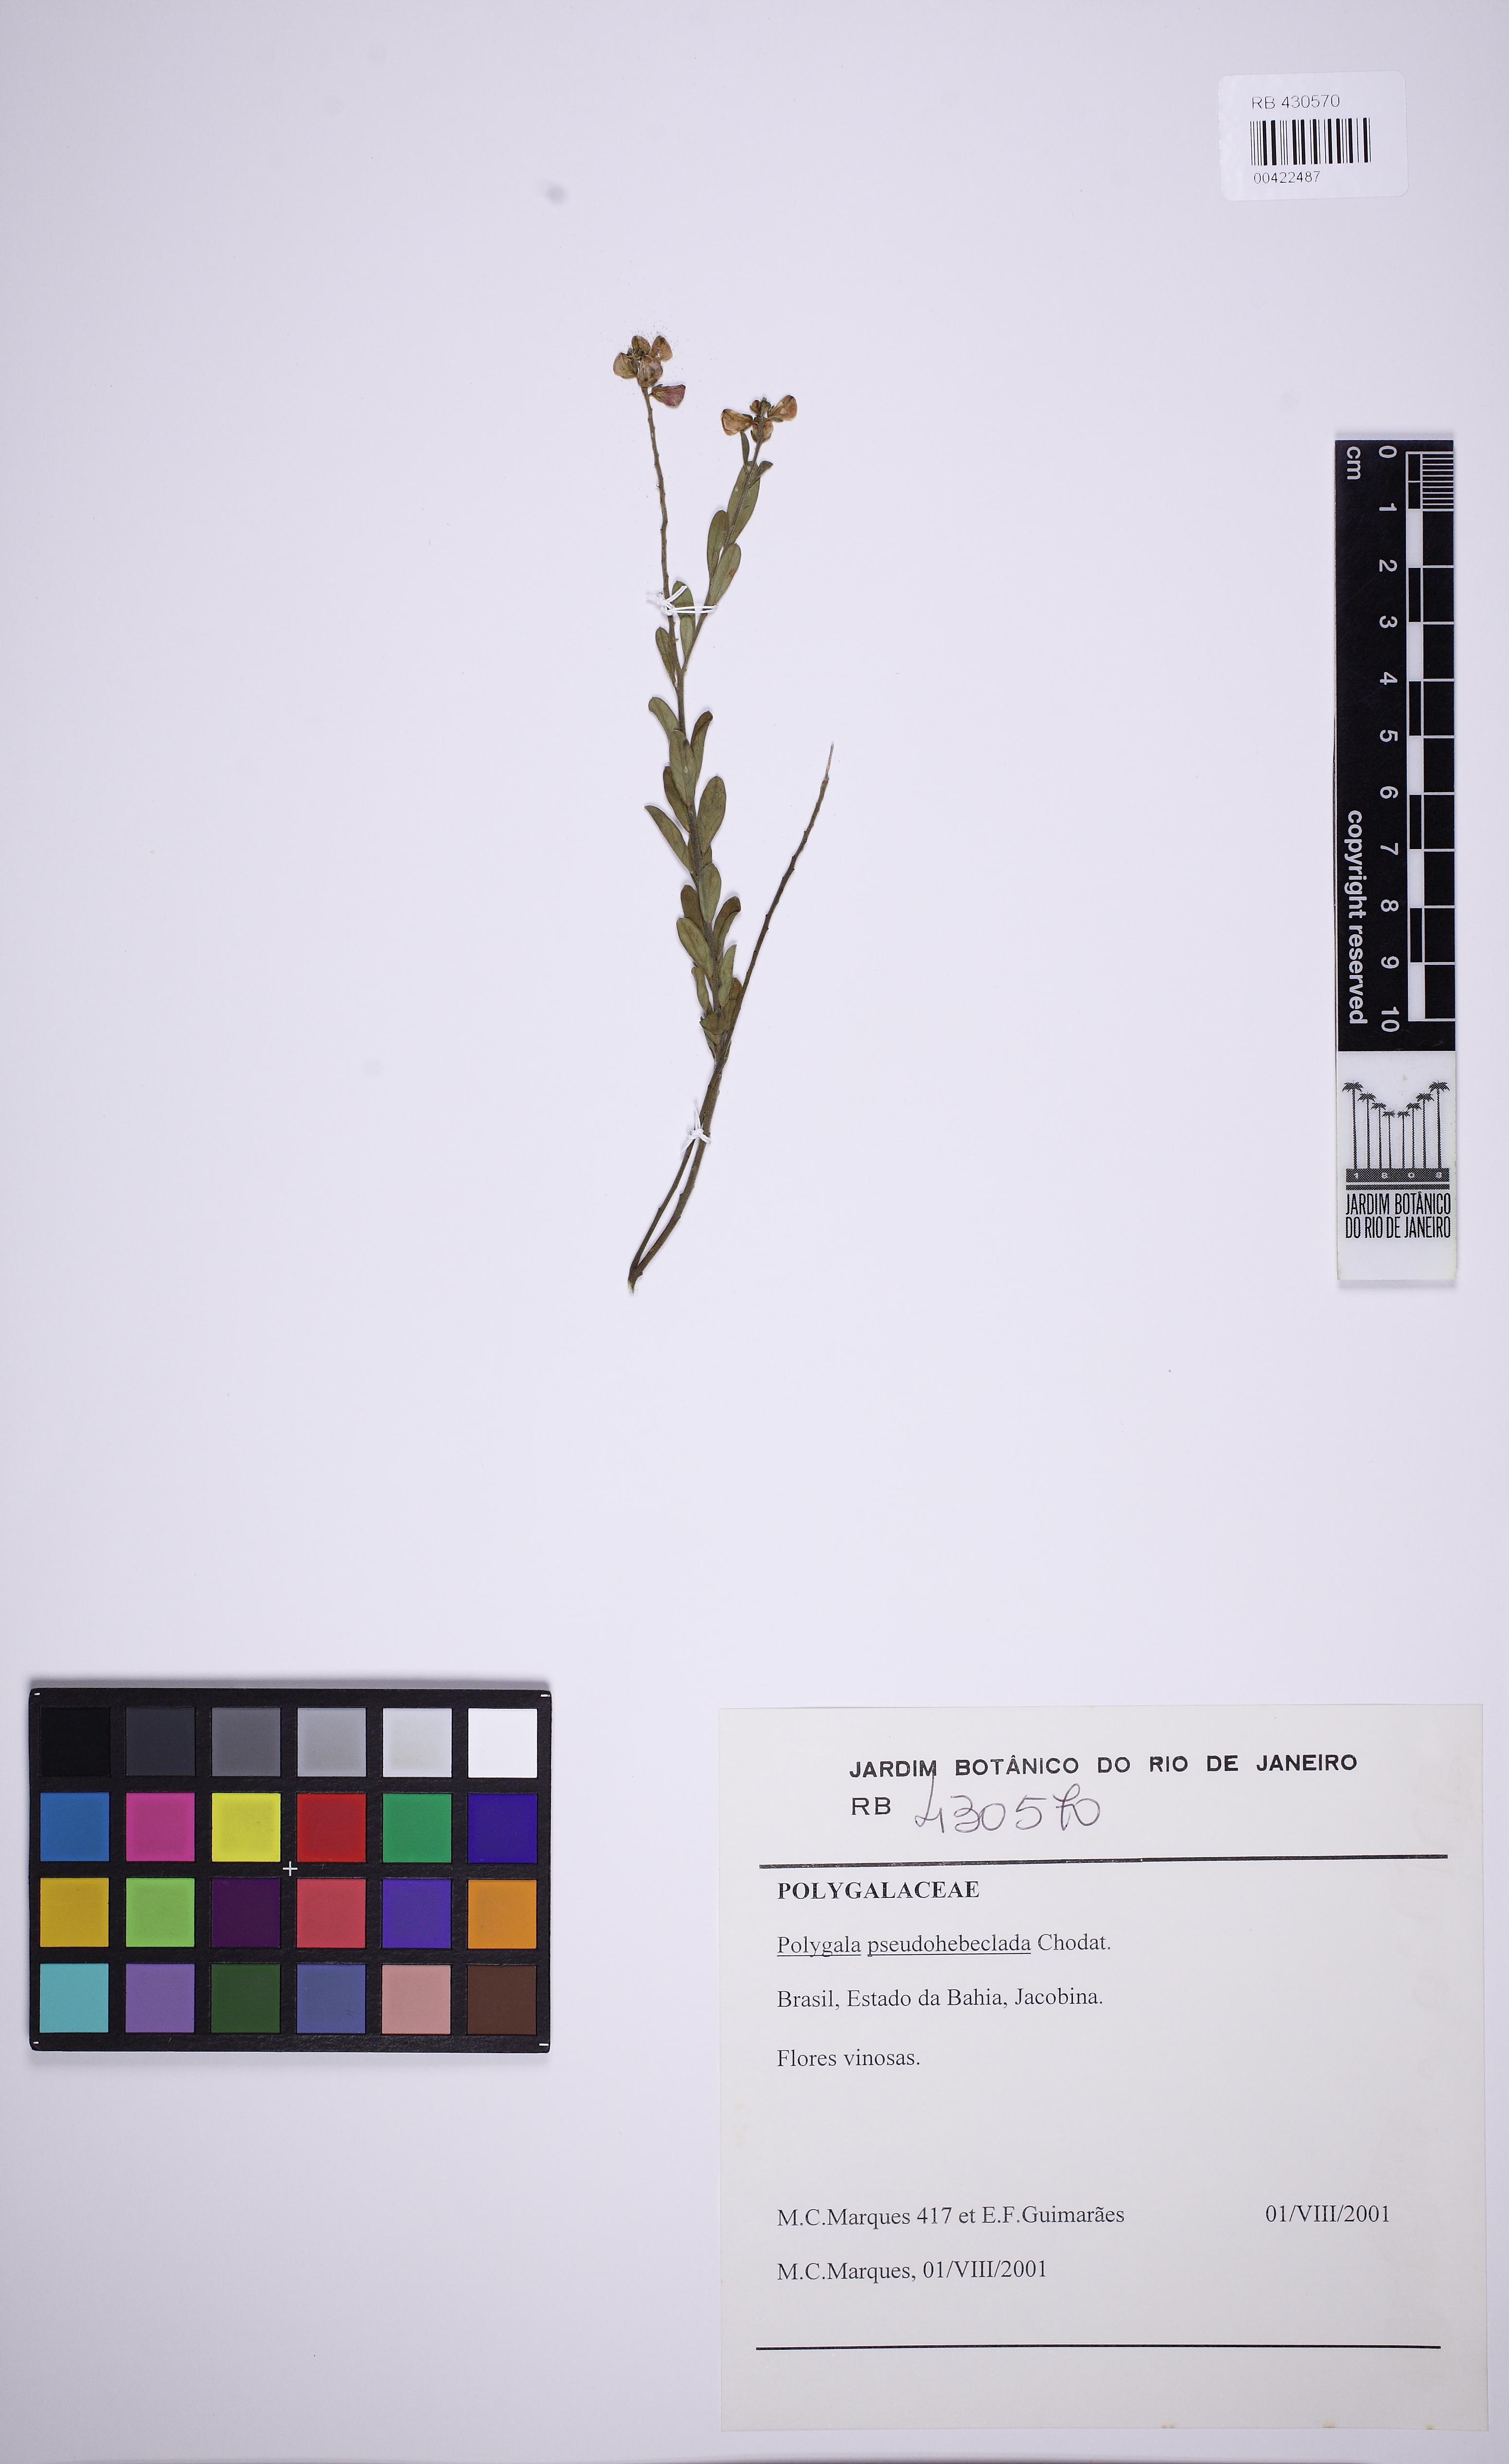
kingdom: Plantae
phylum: Tracheophyta
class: Magnoliopsida
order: Fabales
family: Polygalaceae
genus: Asemeia
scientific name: Asemeia pseudohebeclada
